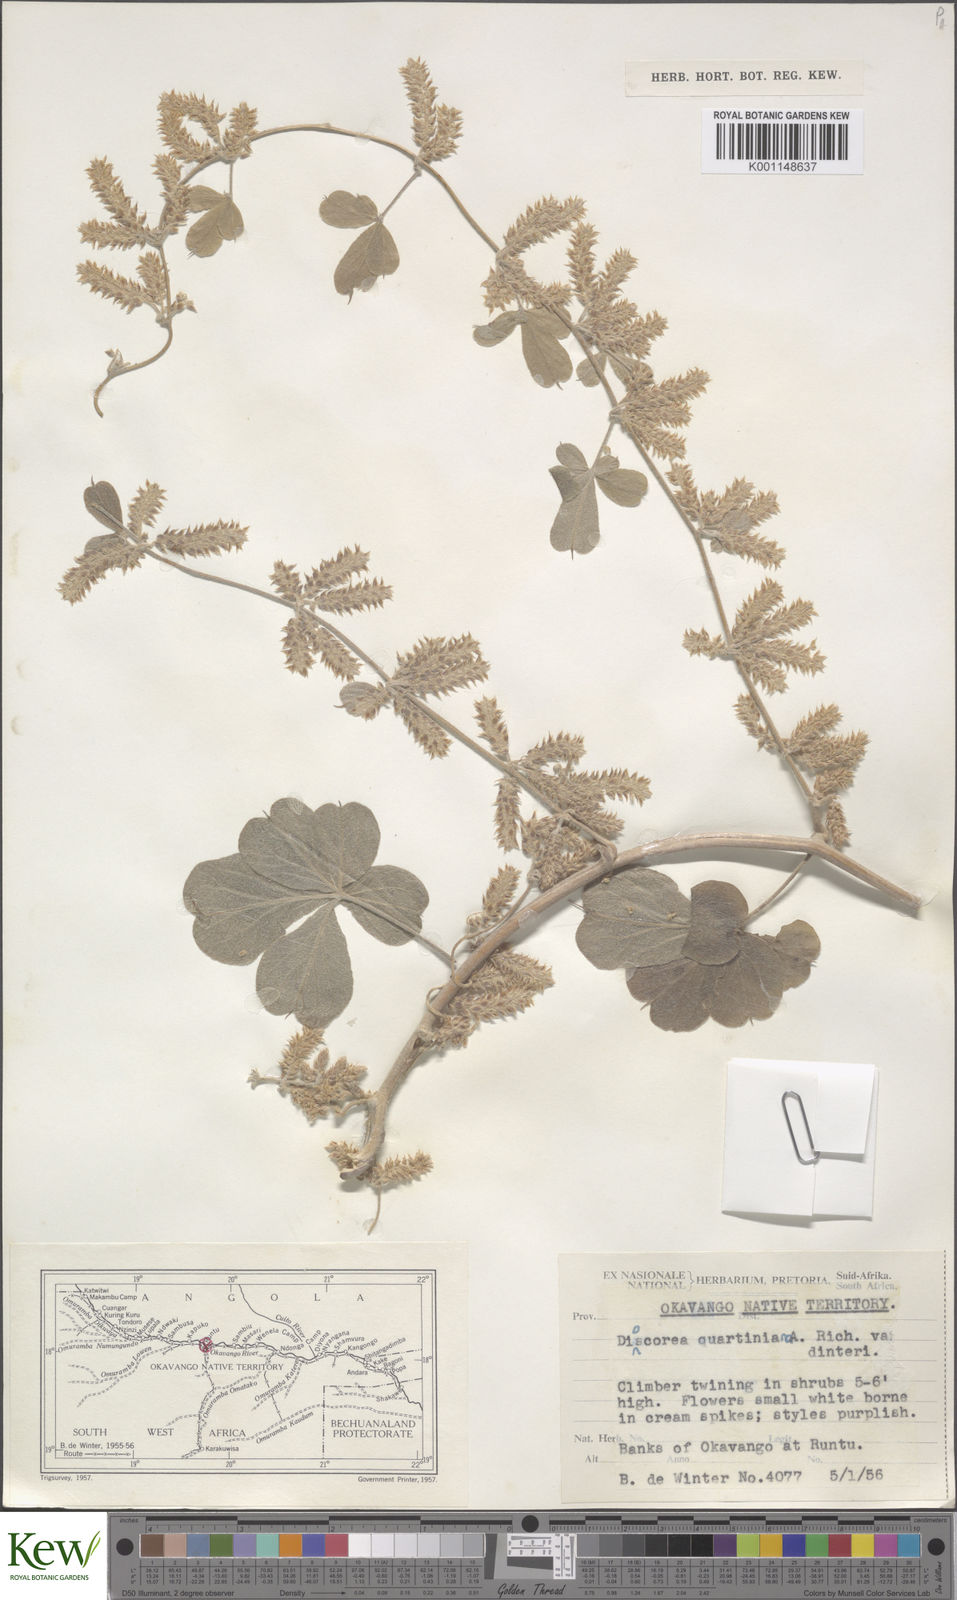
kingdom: Plantae
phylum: Tracheophyta
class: Liliopsida
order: Dioscoreales
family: Dioscoreaceae
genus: Dioscorea
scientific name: Dioscorea quartiniana
